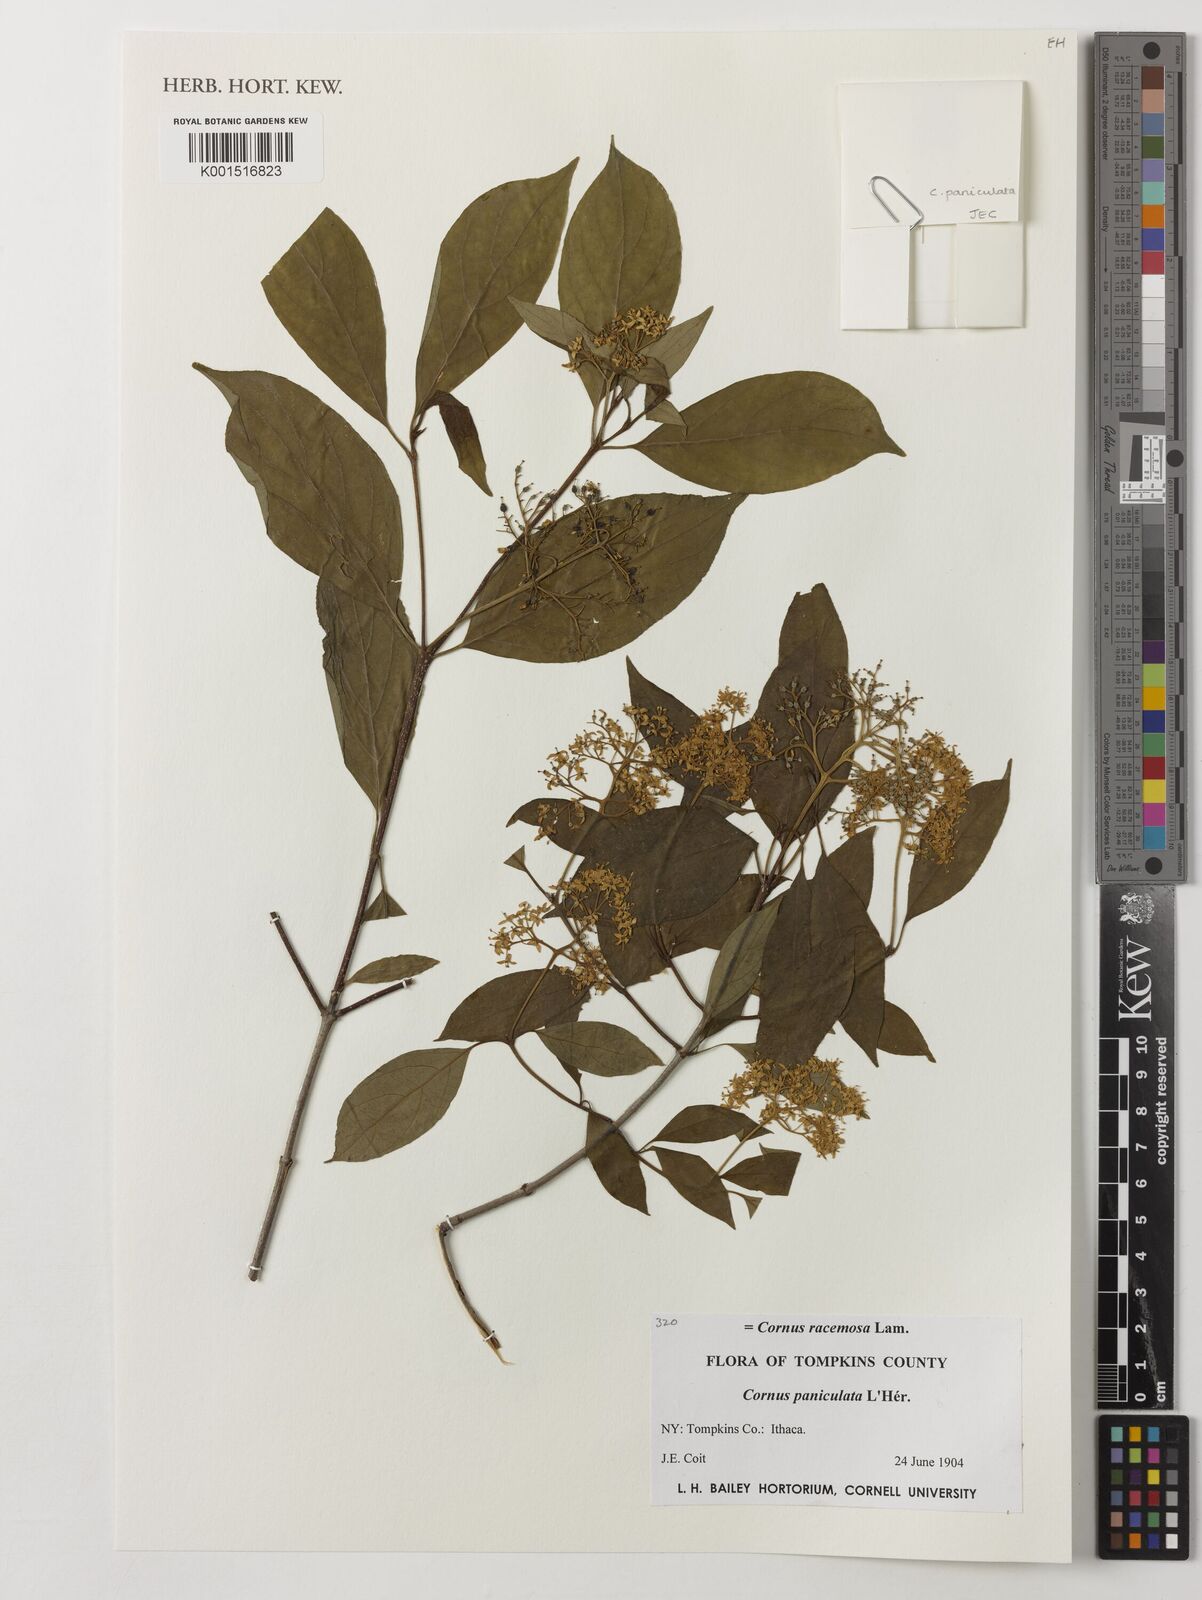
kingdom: Plantae
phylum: Tracheophyta
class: Magnoliopsida
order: Cornales
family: Cornaceae
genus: Cornus
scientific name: Cornus
